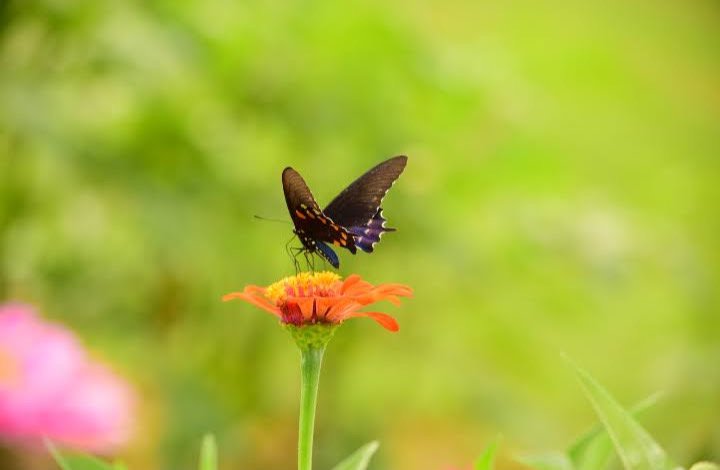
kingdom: Animalia
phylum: Arthropoda
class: Insecta
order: Lepidoptera
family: Papilionidae
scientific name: Papilionidae
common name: Swallowtails and Parnassians
